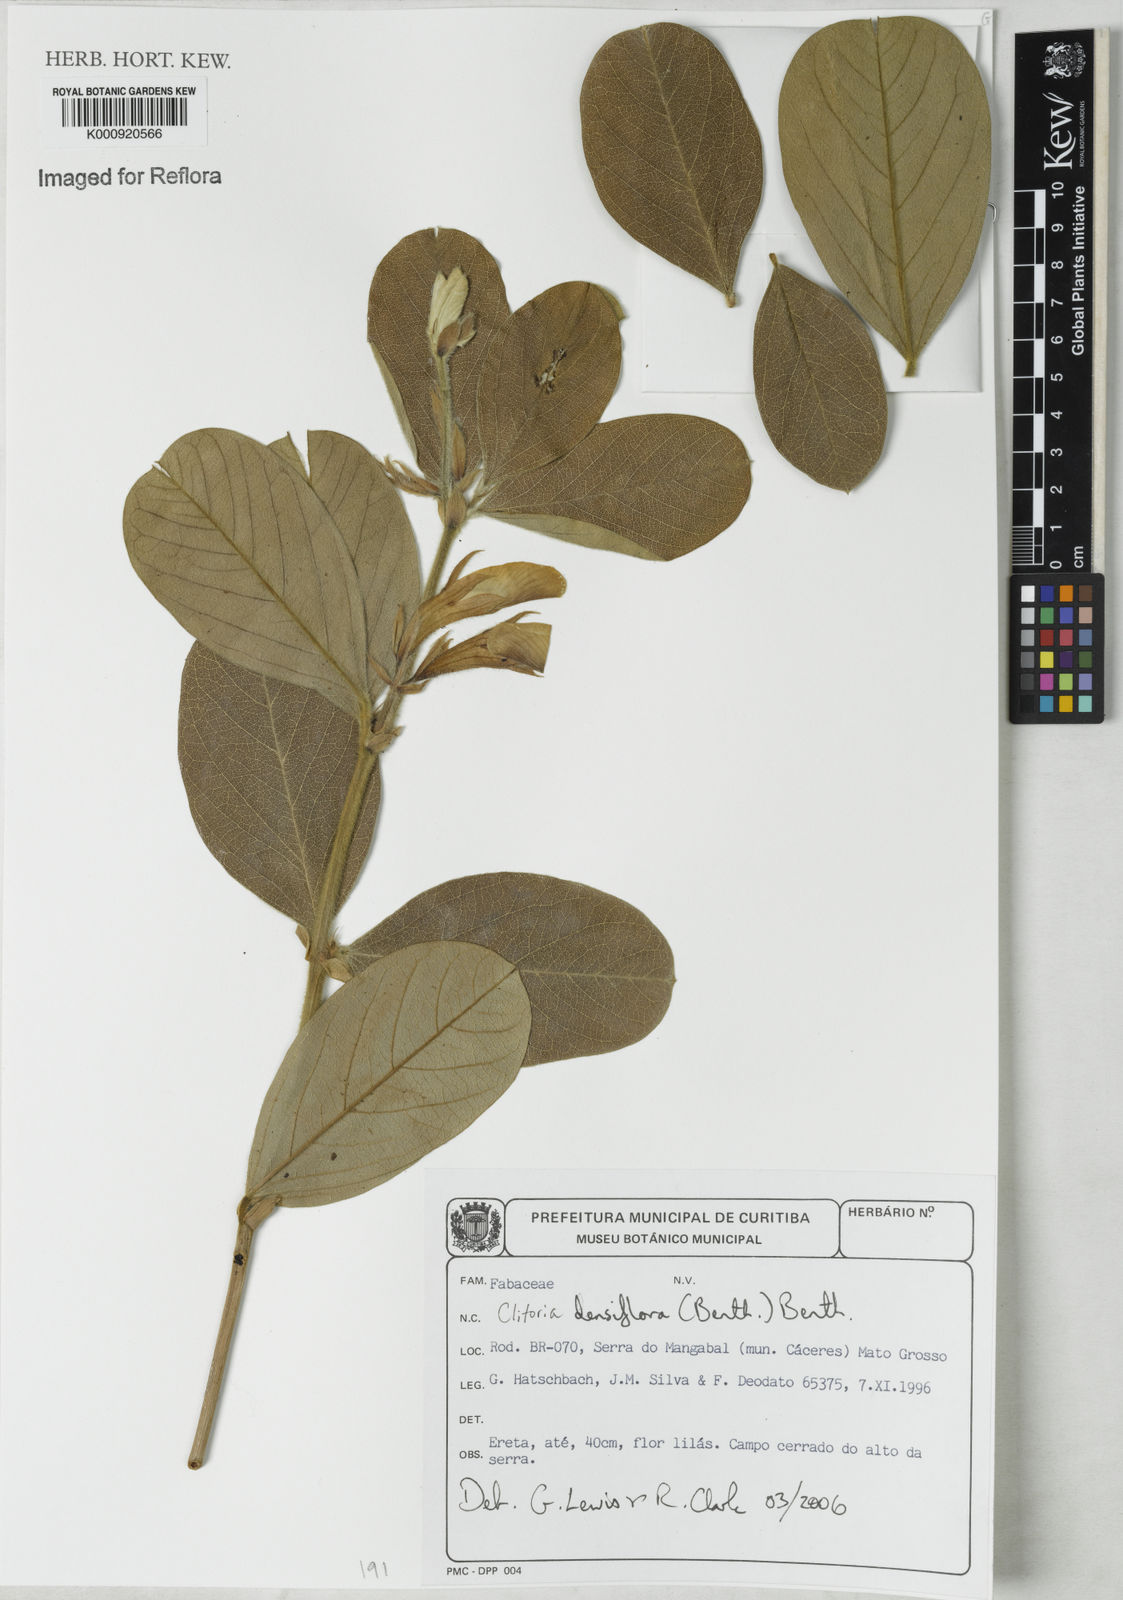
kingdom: Plantae
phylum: Tracheophyta
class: Magnoliopsida
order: Fabales
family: Fabaceae
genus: Clitoria
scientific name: Clitoria
